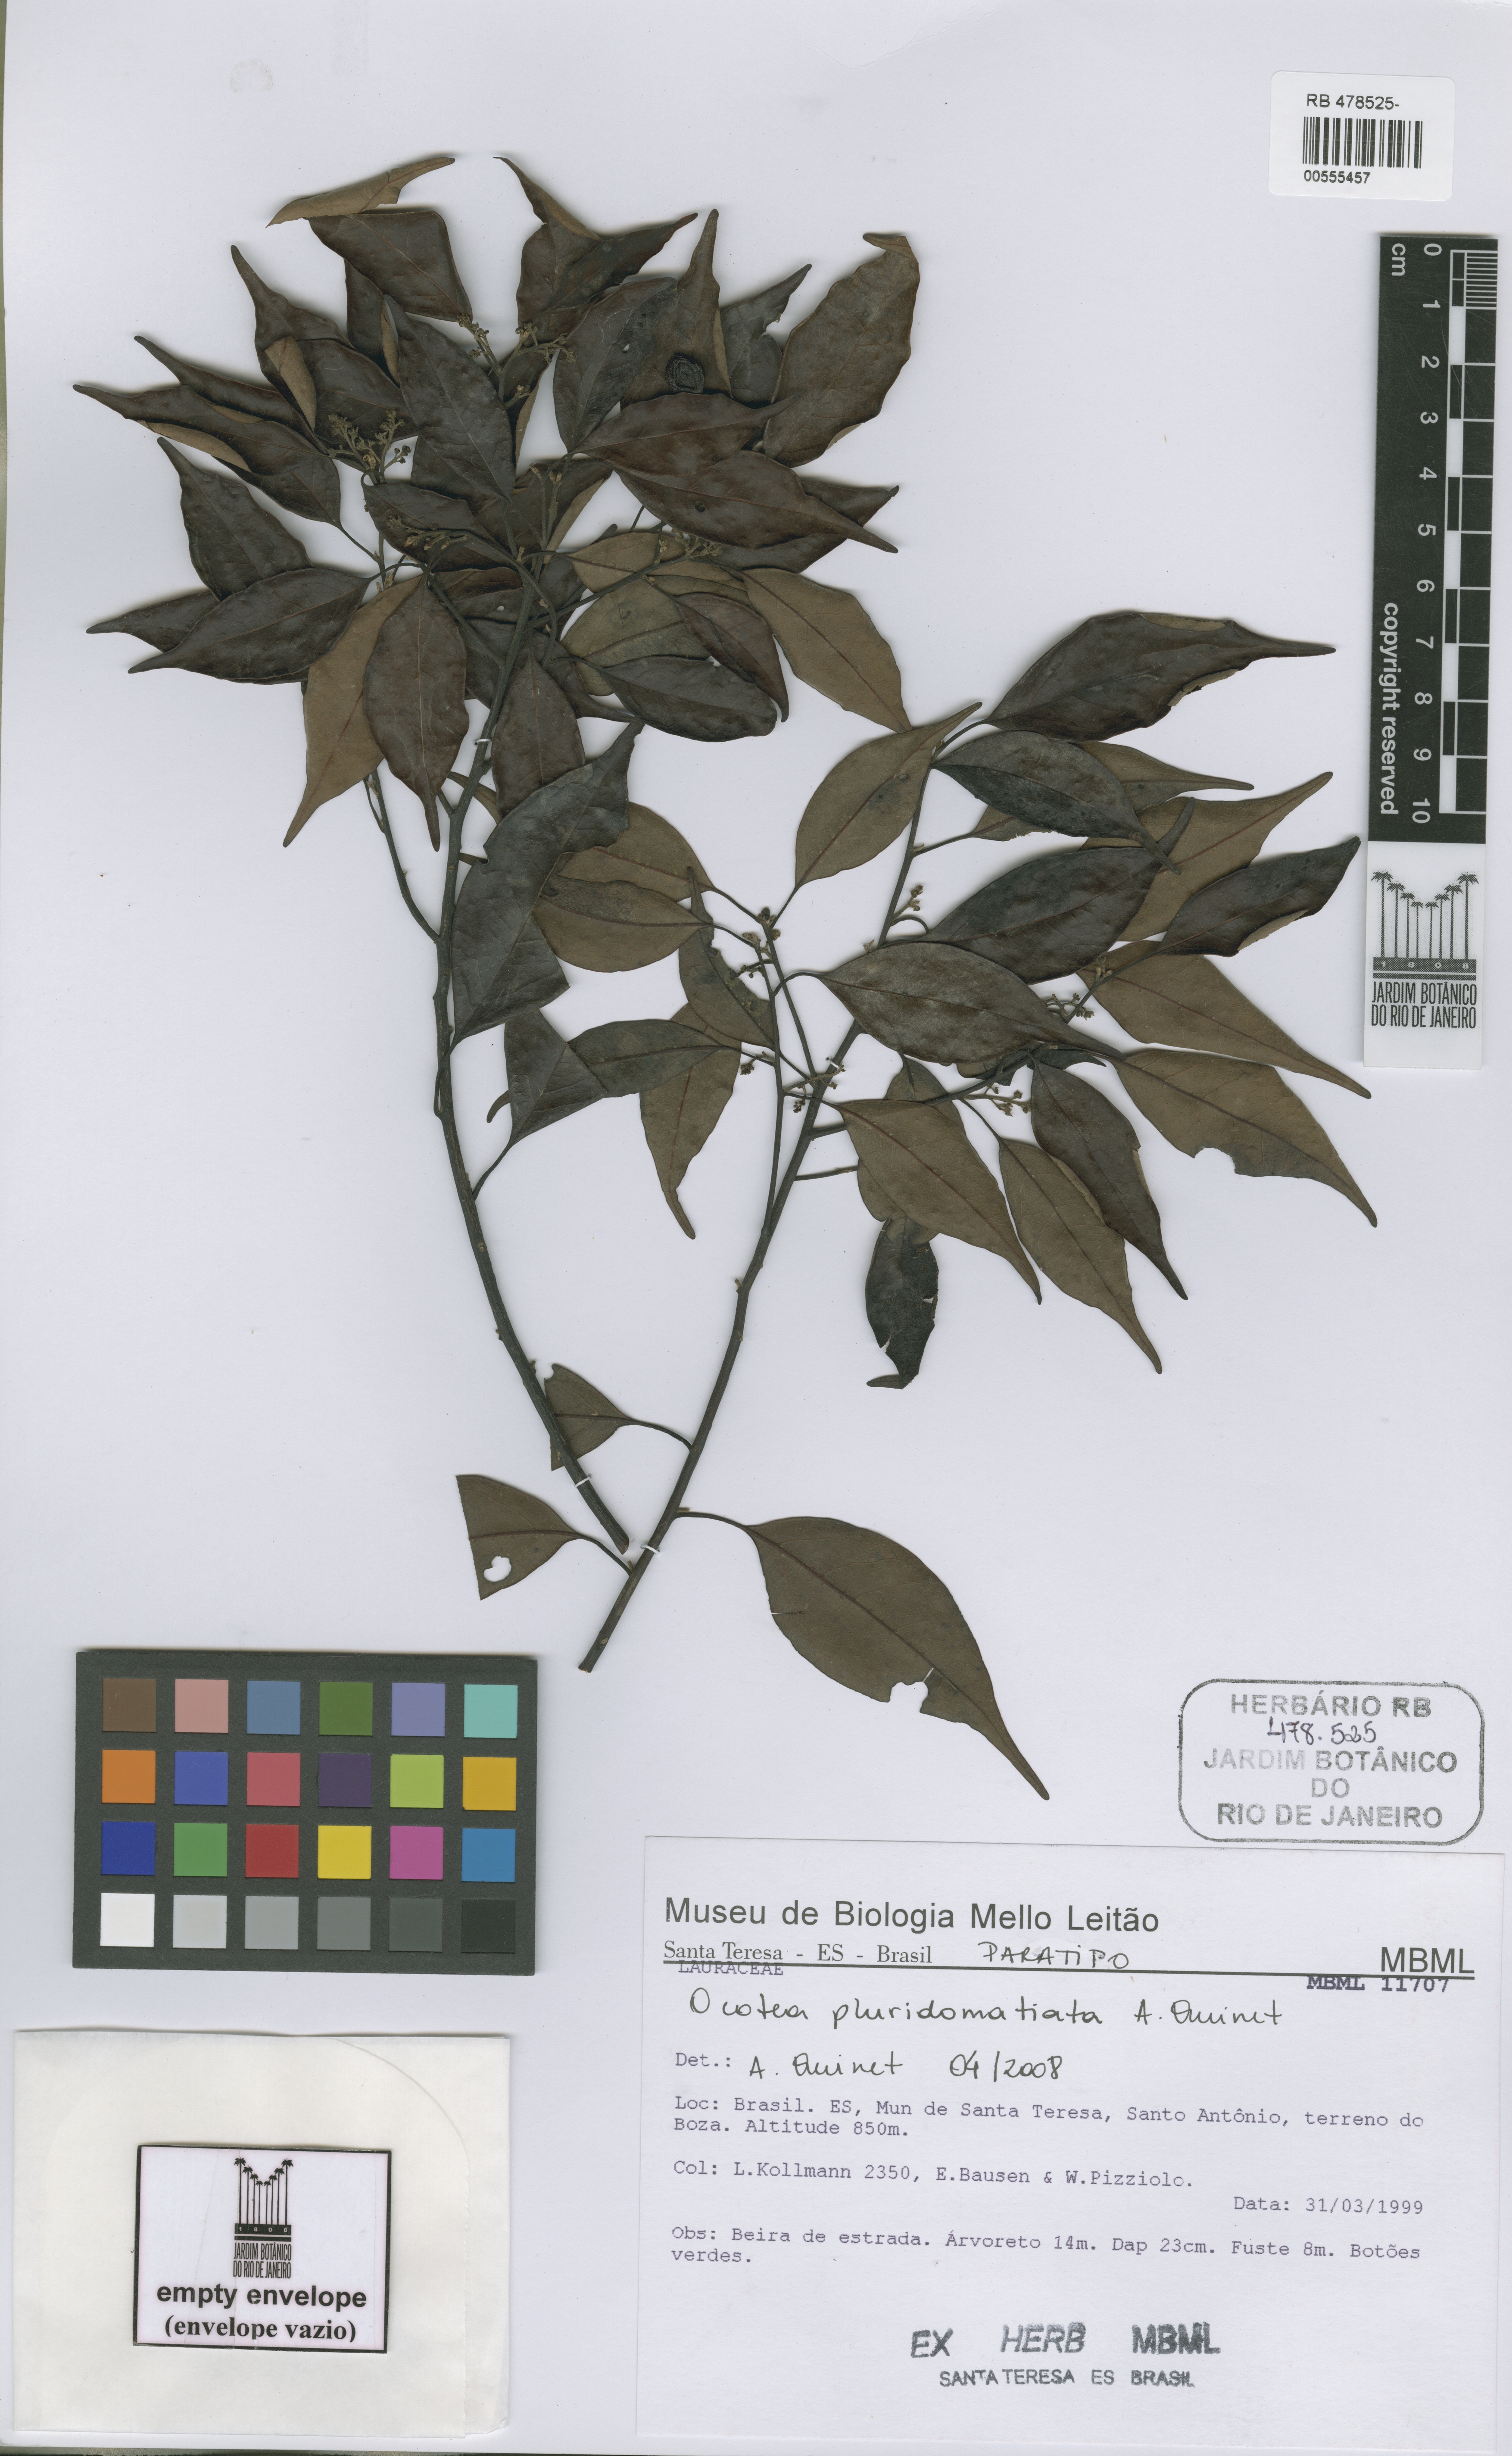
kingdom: Plantae
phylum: Tracheophyta
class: Magnoliopsida
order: Laurales
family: Lauraceae
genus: Ocotea
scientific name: Ocotea pluridomatiata
